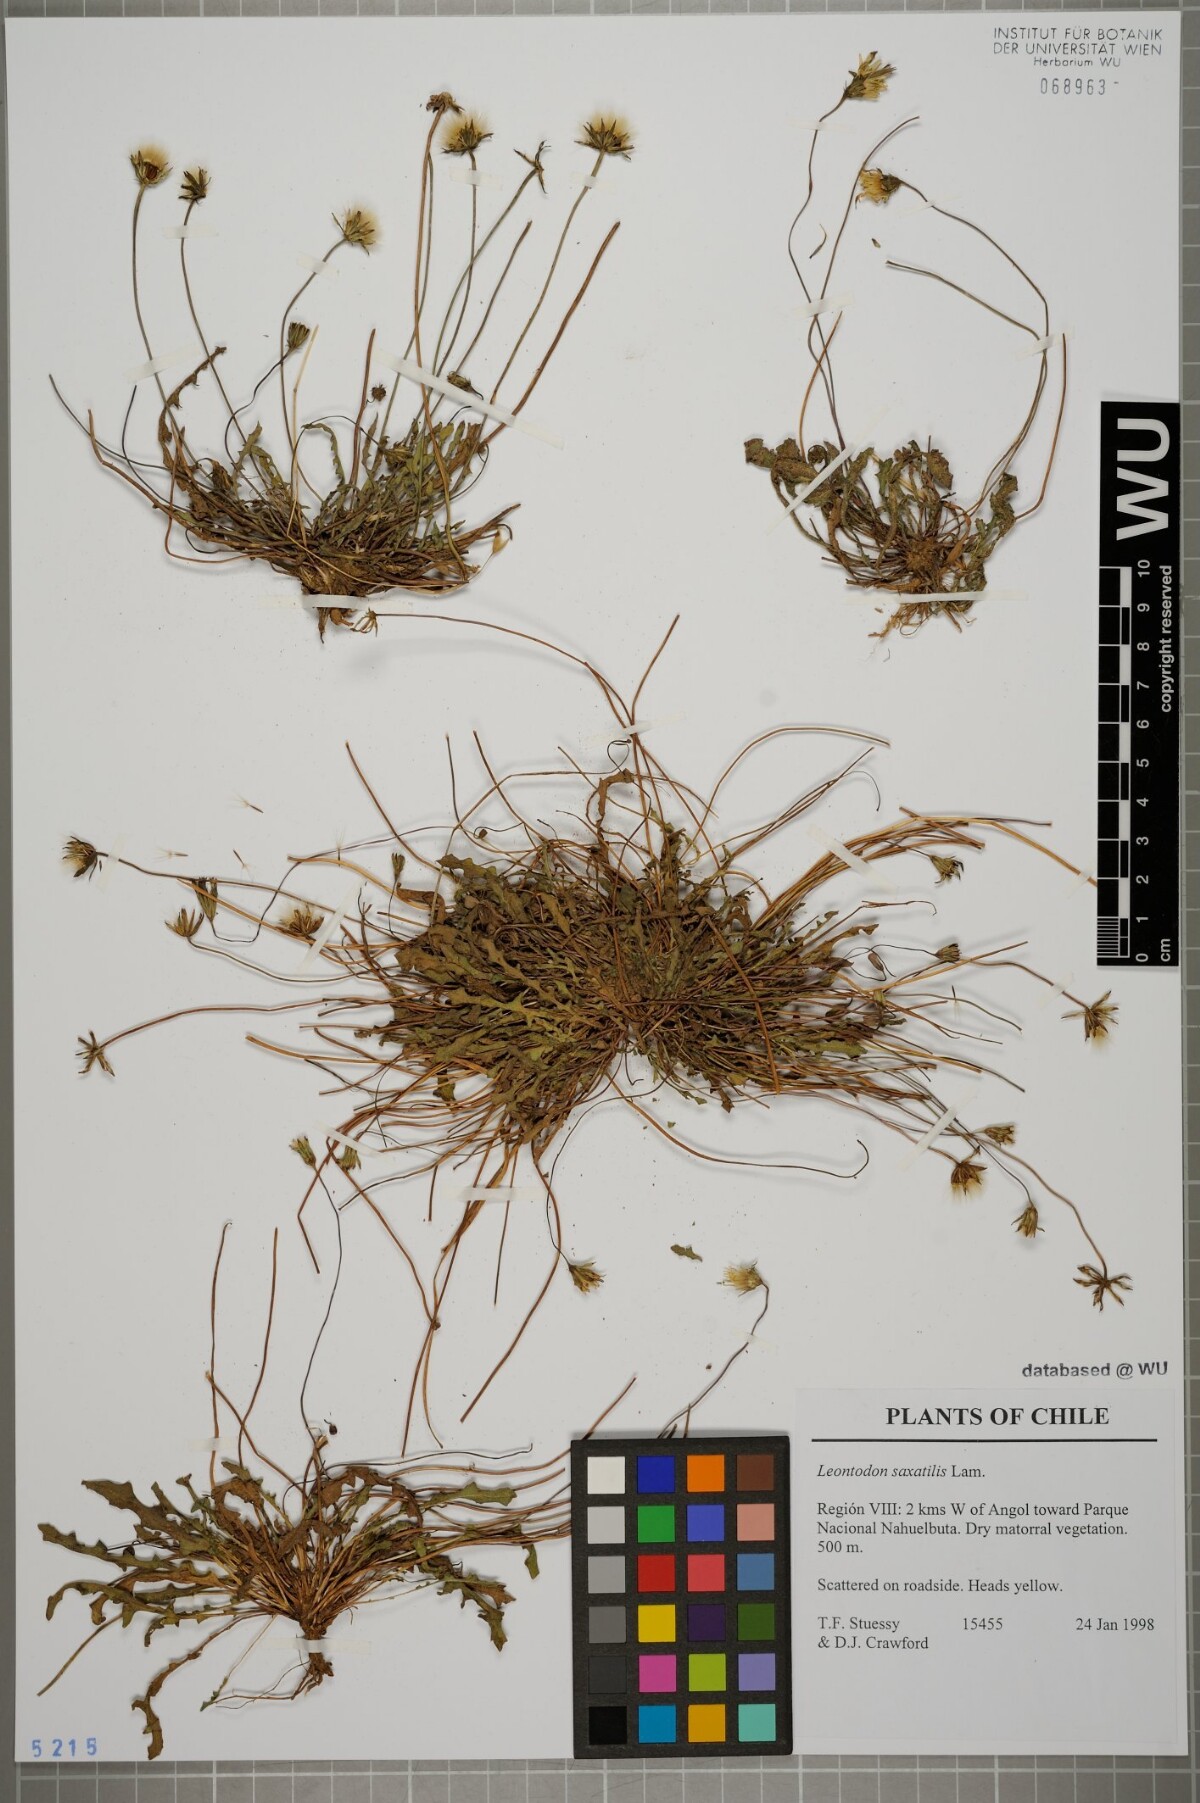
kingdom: Plantae
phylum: Tracheophyta
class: Magnoliopsida
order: Asterales
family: Asteraceae
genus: Thrincia
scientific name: Thrincia saxatilis
